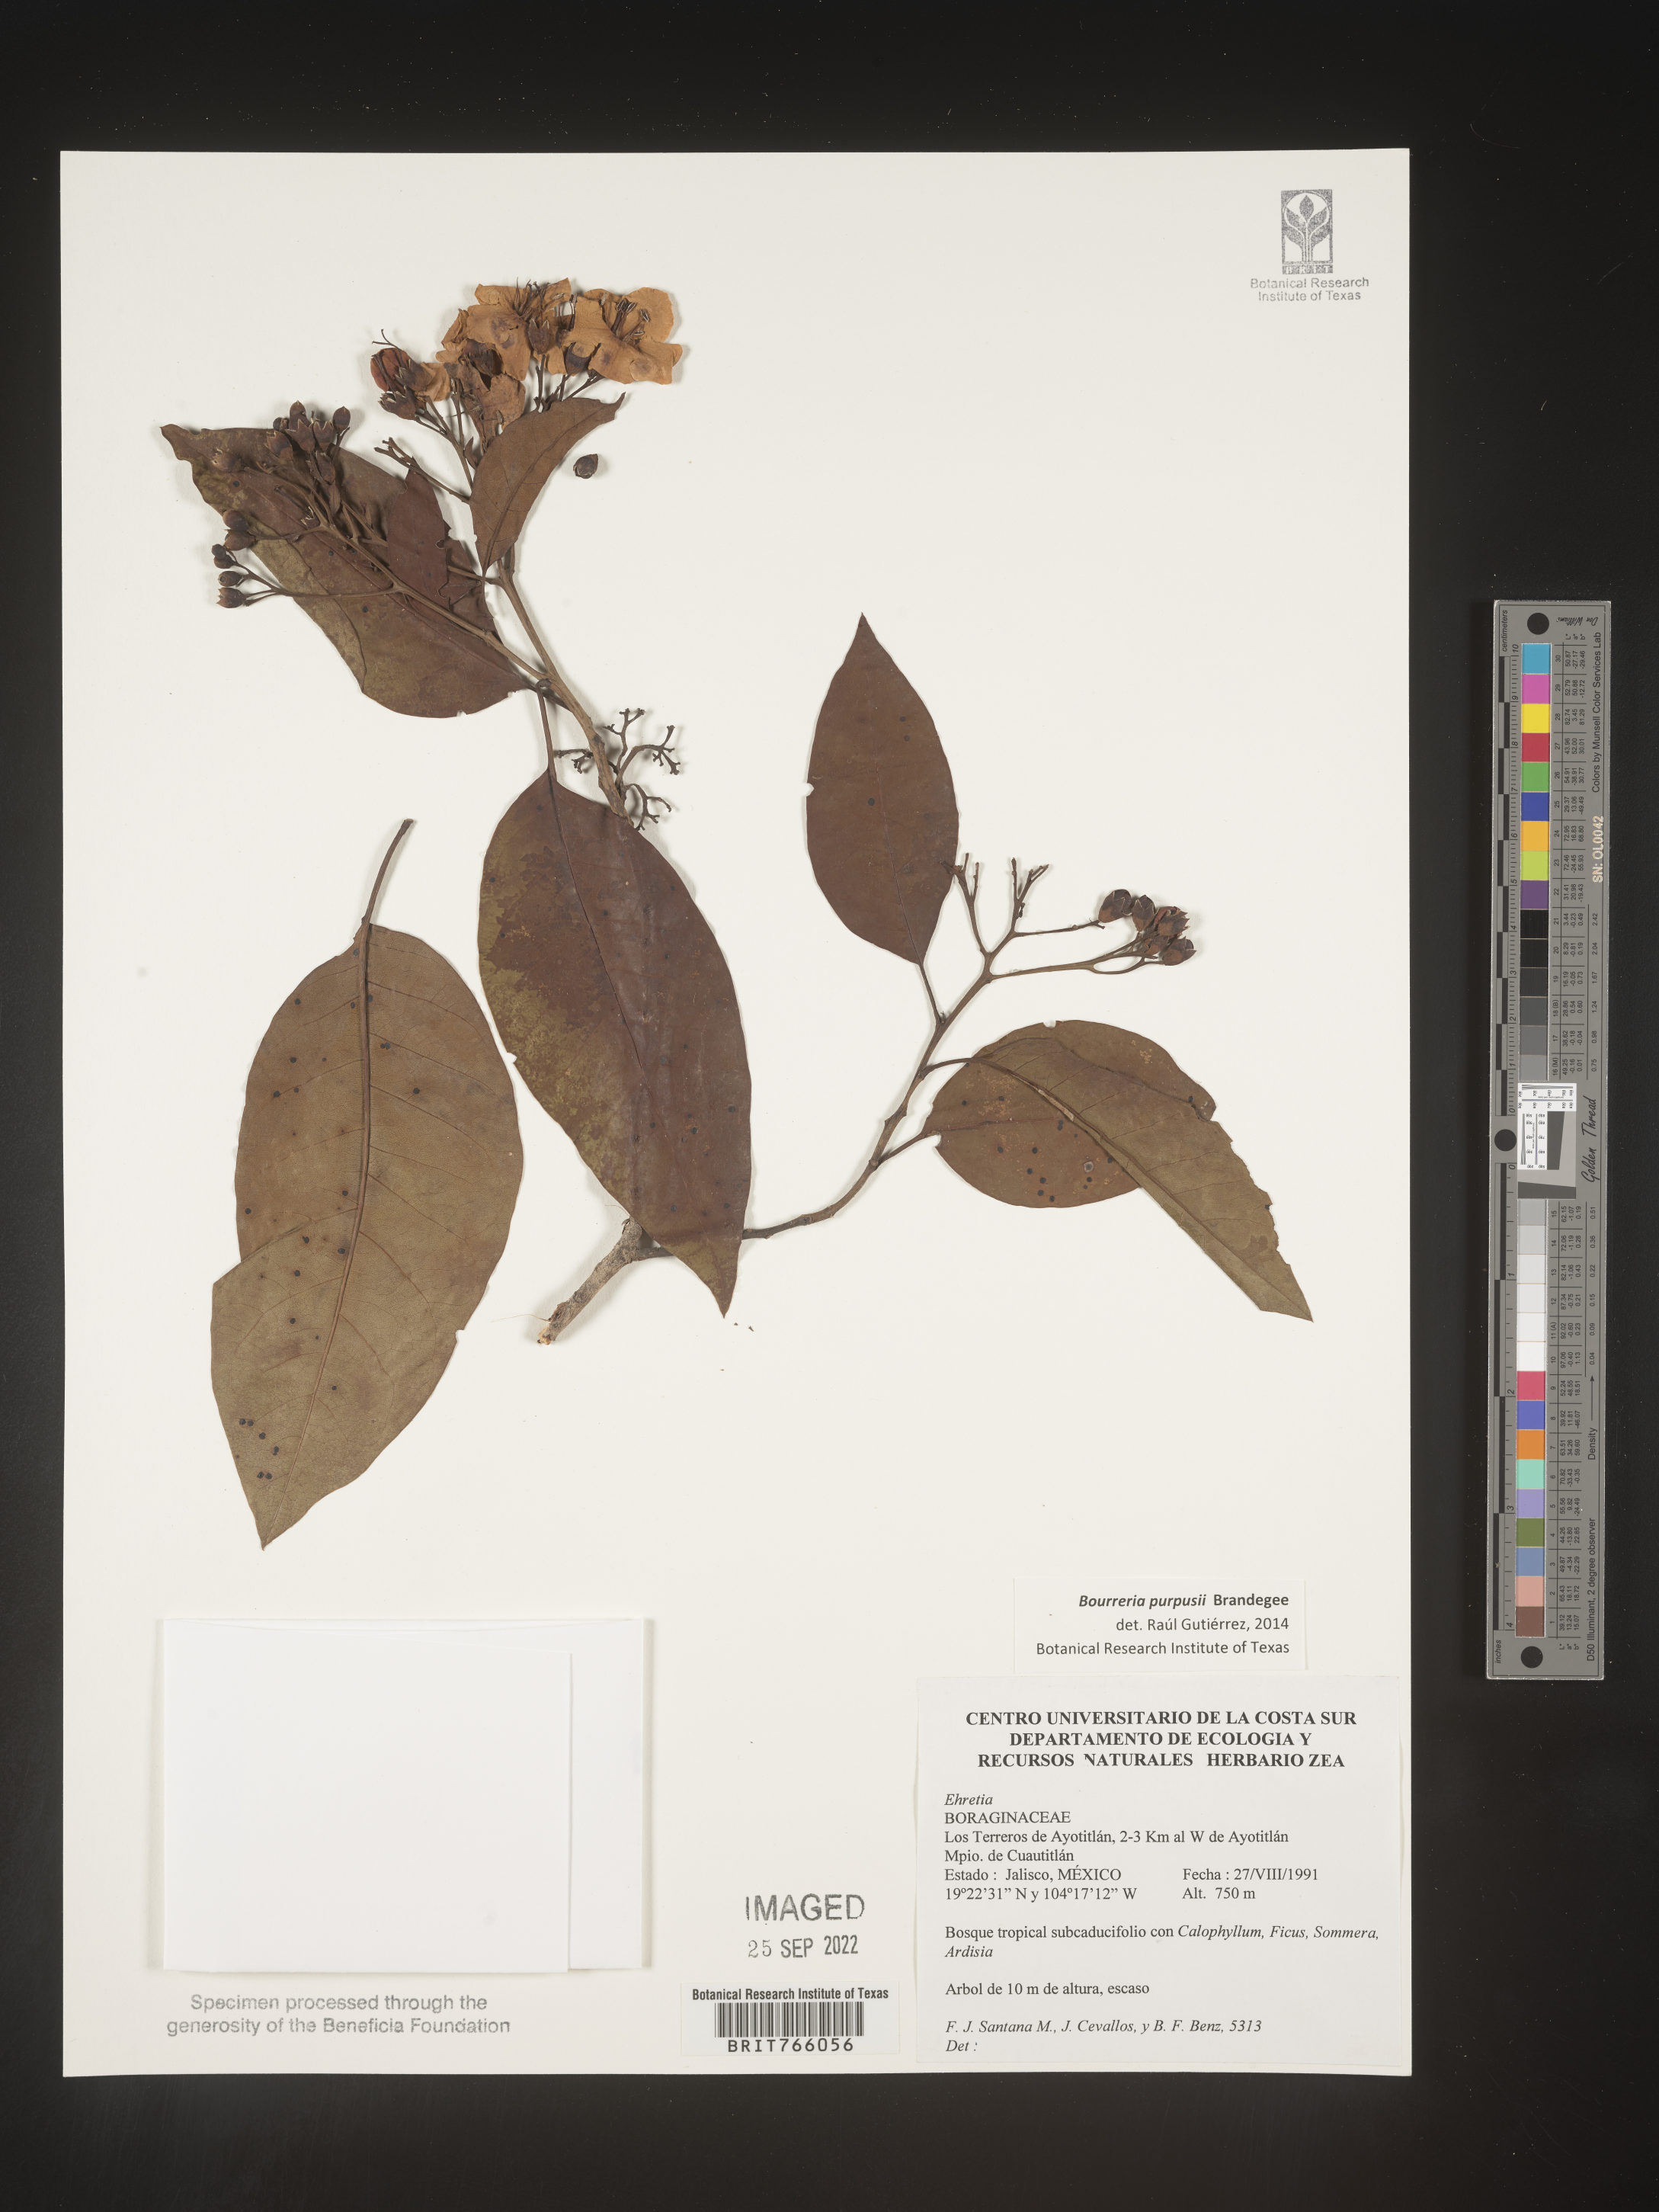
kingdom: Plantae
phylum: Tracheophyta
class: Magnoliopsida
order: Boraginales
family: Ehretiaceae
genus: Bourreria
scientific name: Bourreria
